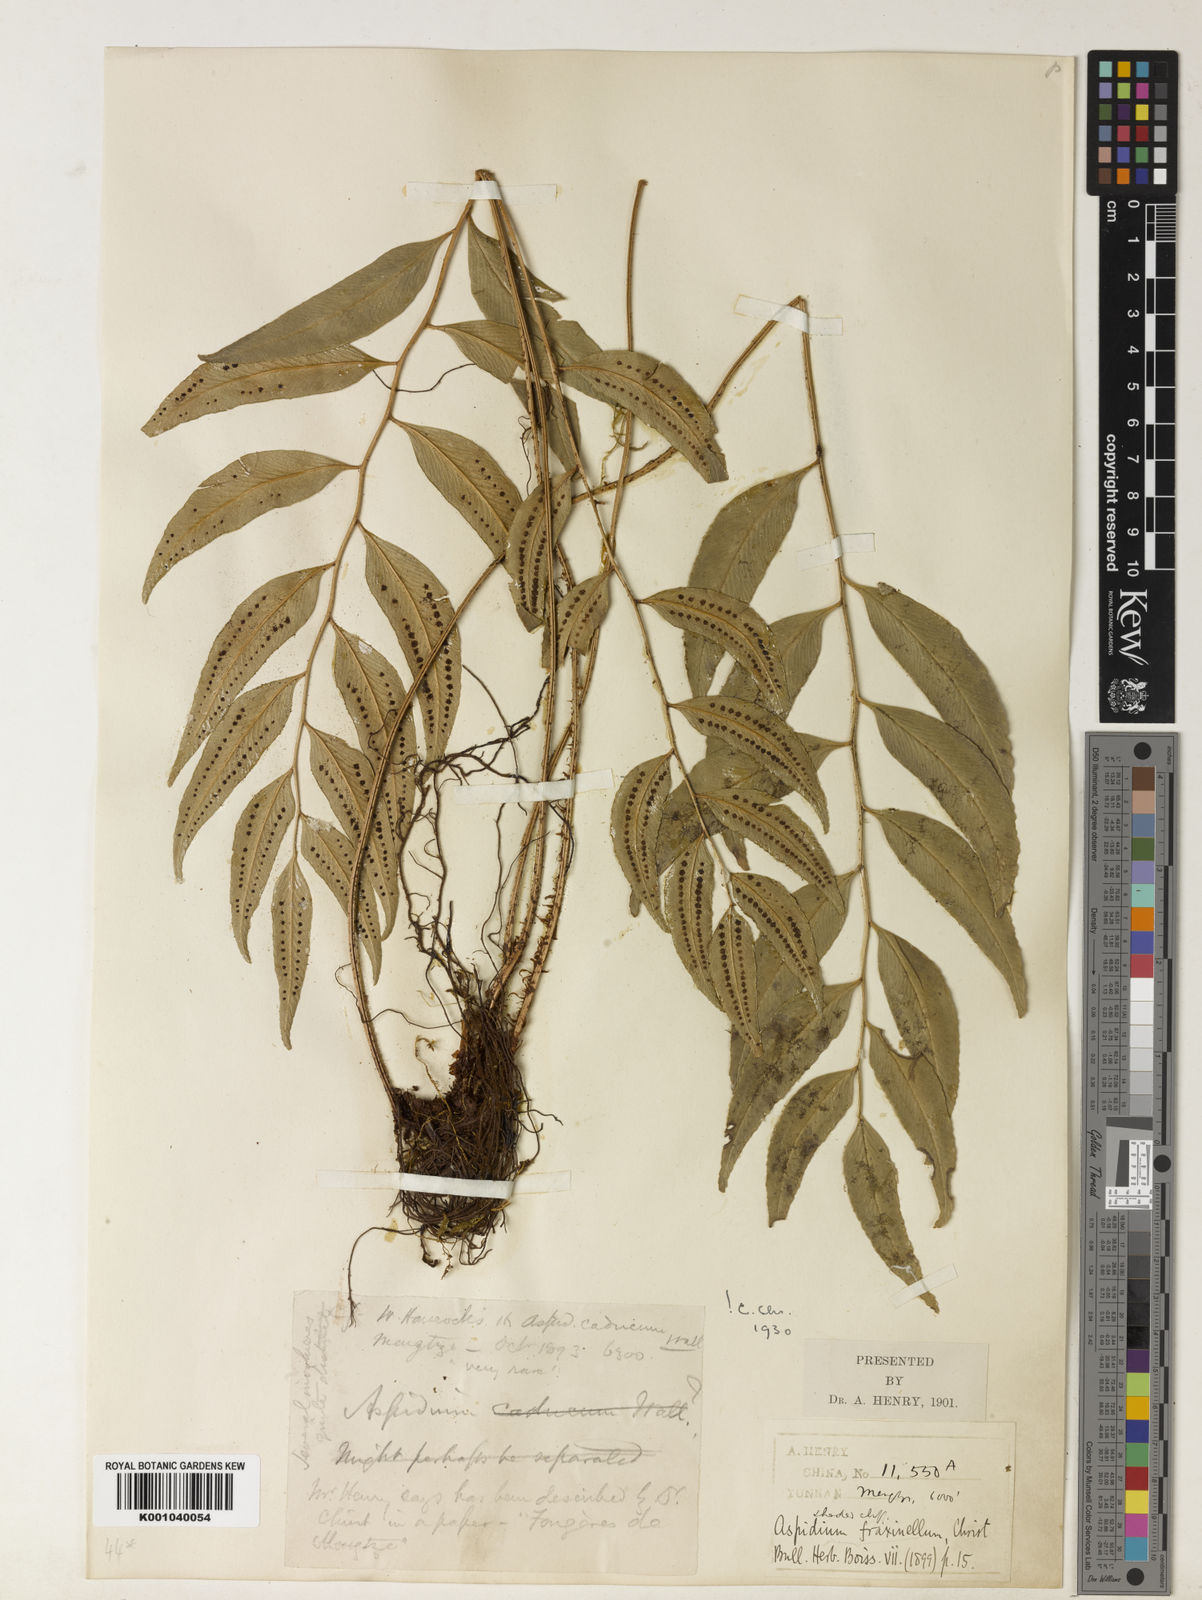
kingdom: Plantae
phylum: Tracheophyta
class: Polypodiopsida
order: Polypodiales
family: Dryopteridaceae
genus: Polystichum
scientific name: Polystichum fraxinellum
